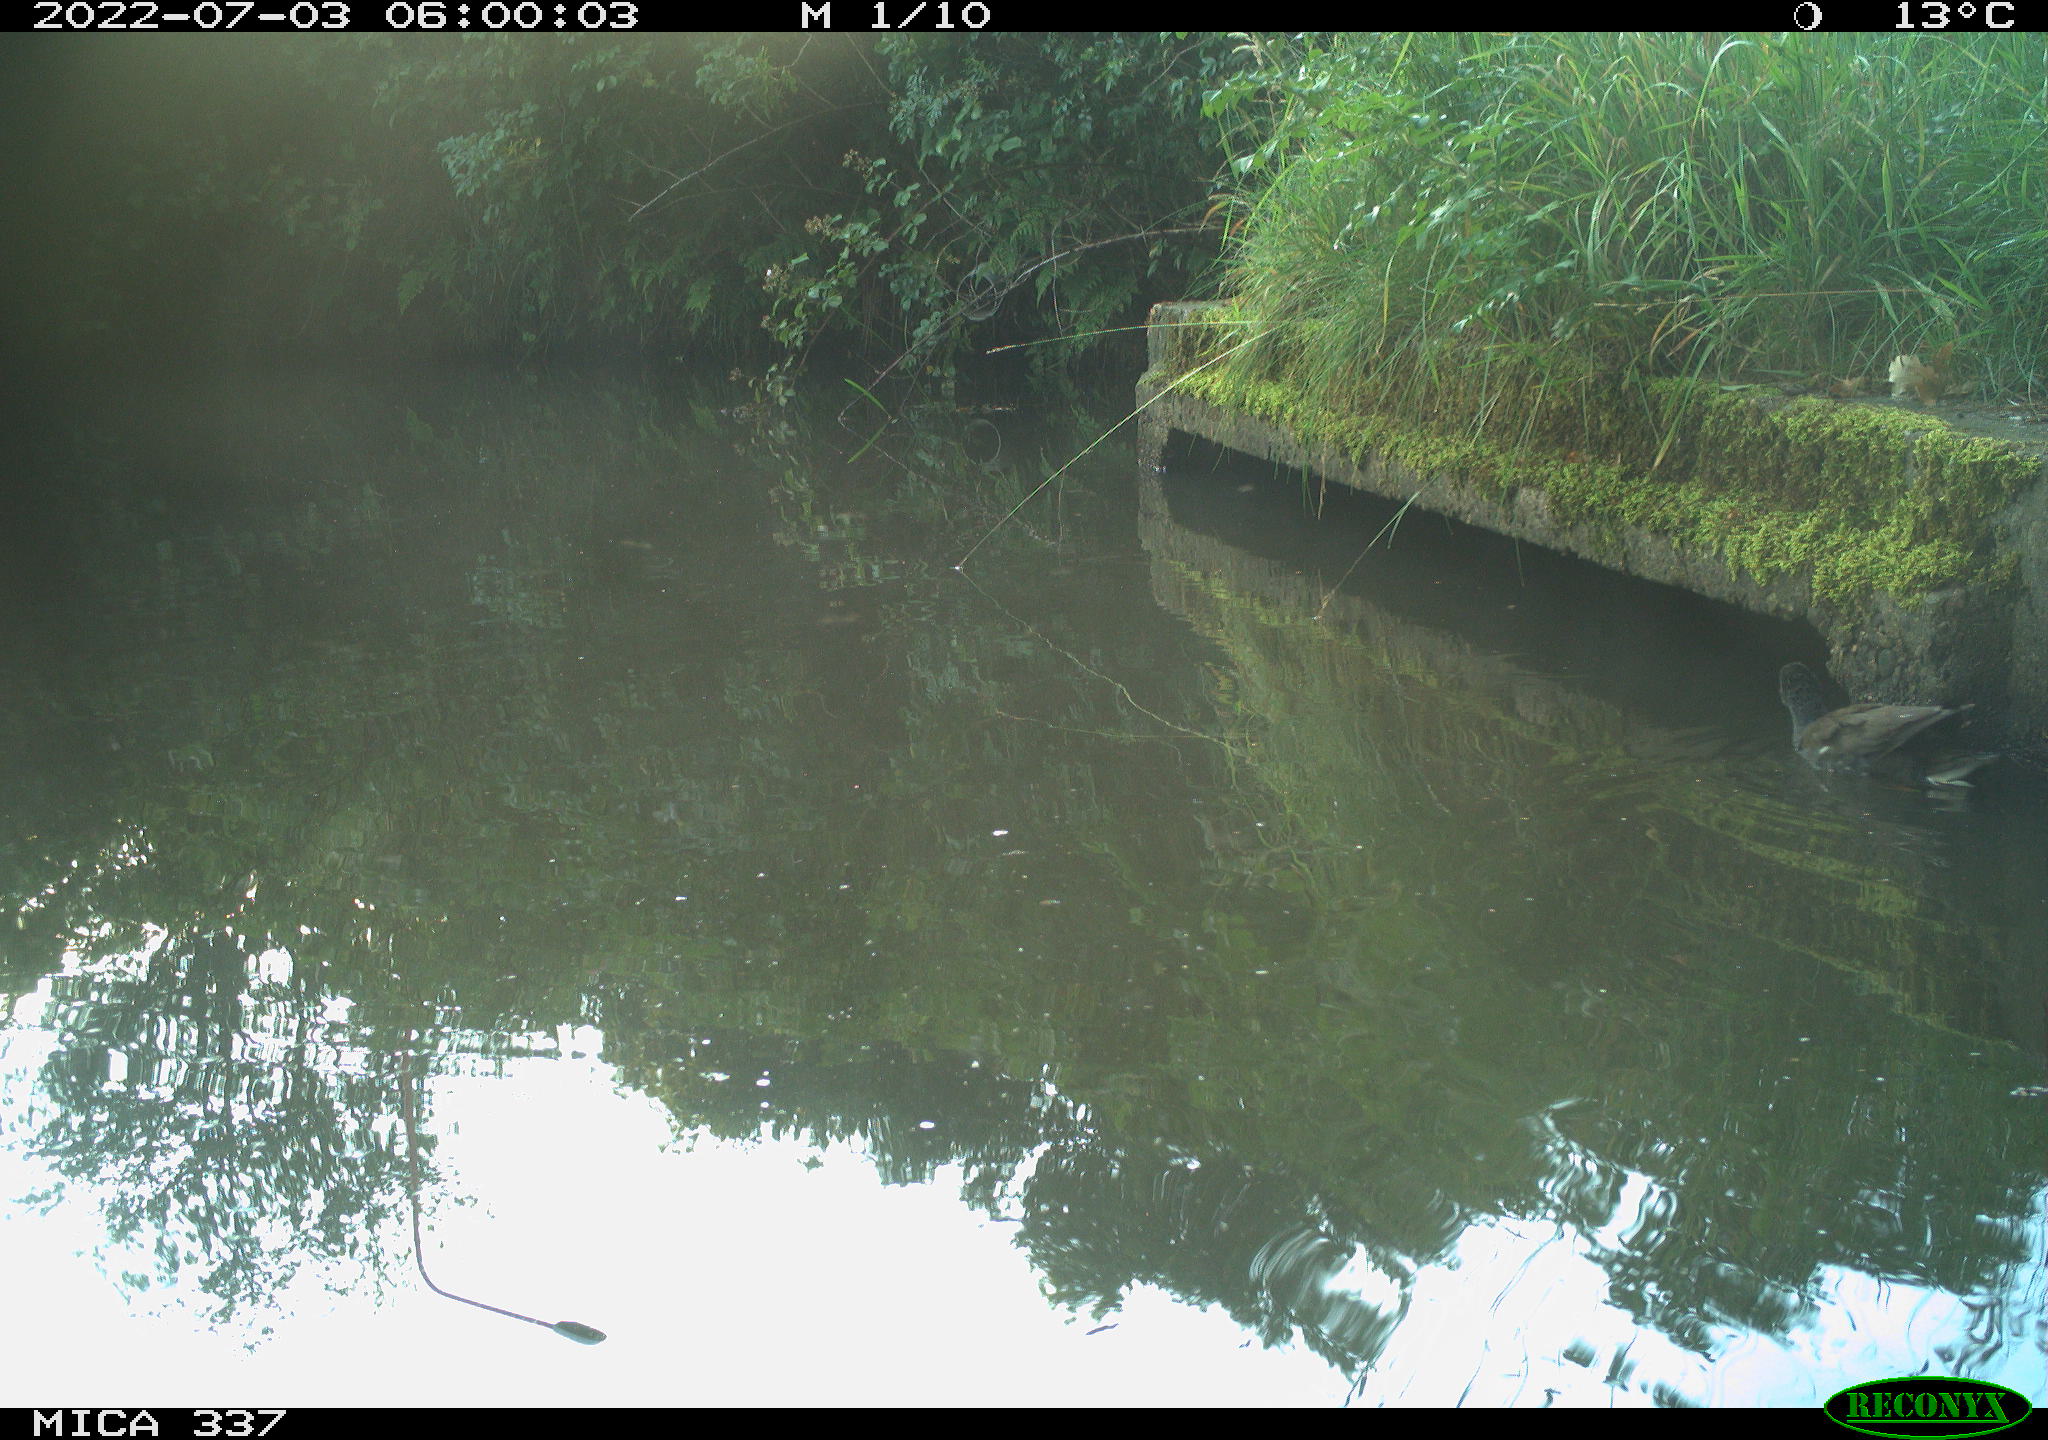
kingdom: Animalia
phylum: Chordata
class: Aves
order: Gruiformes
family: Rallidae
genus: Gallinula
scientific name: Gallinula chloropus
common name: Common moorhen
